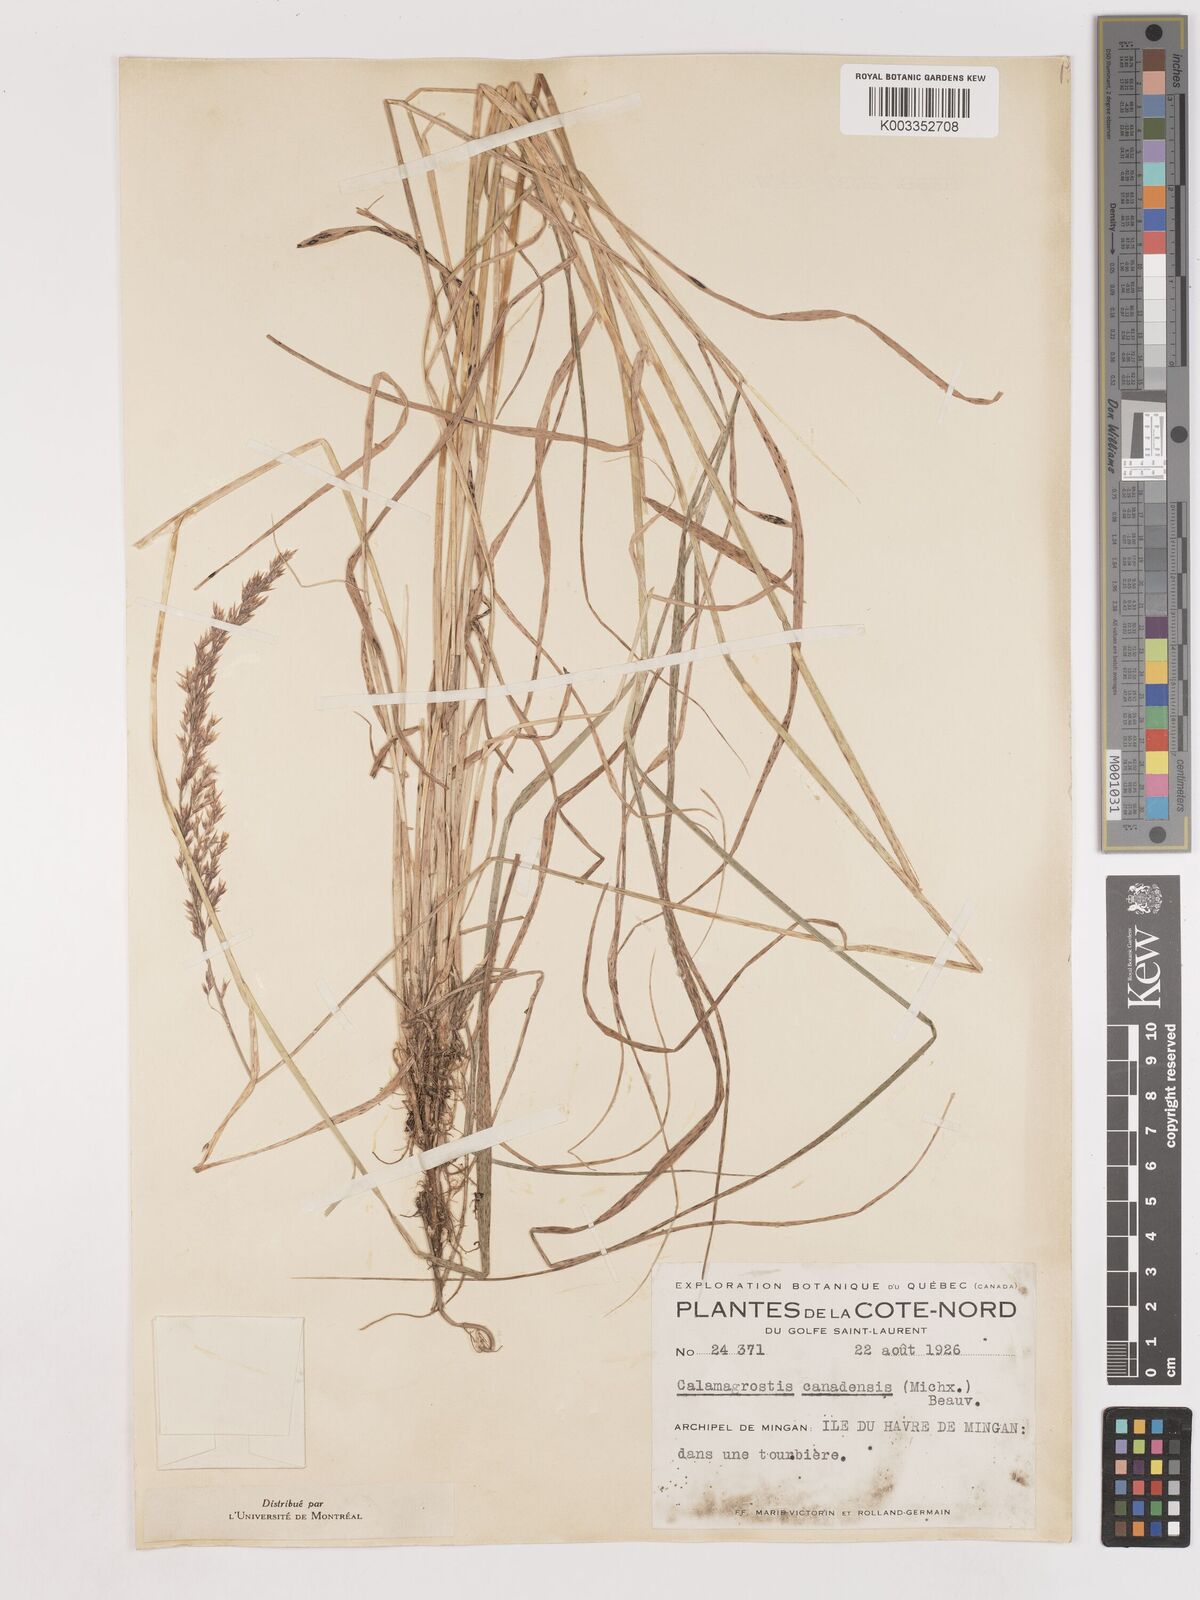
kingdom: Plantae
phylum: Tracheophyta
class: Liliopsida
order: Poales
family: Poaceae
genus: Calamagrostis
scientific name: Calamagrostis canadensis
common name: Canada bluejoint
